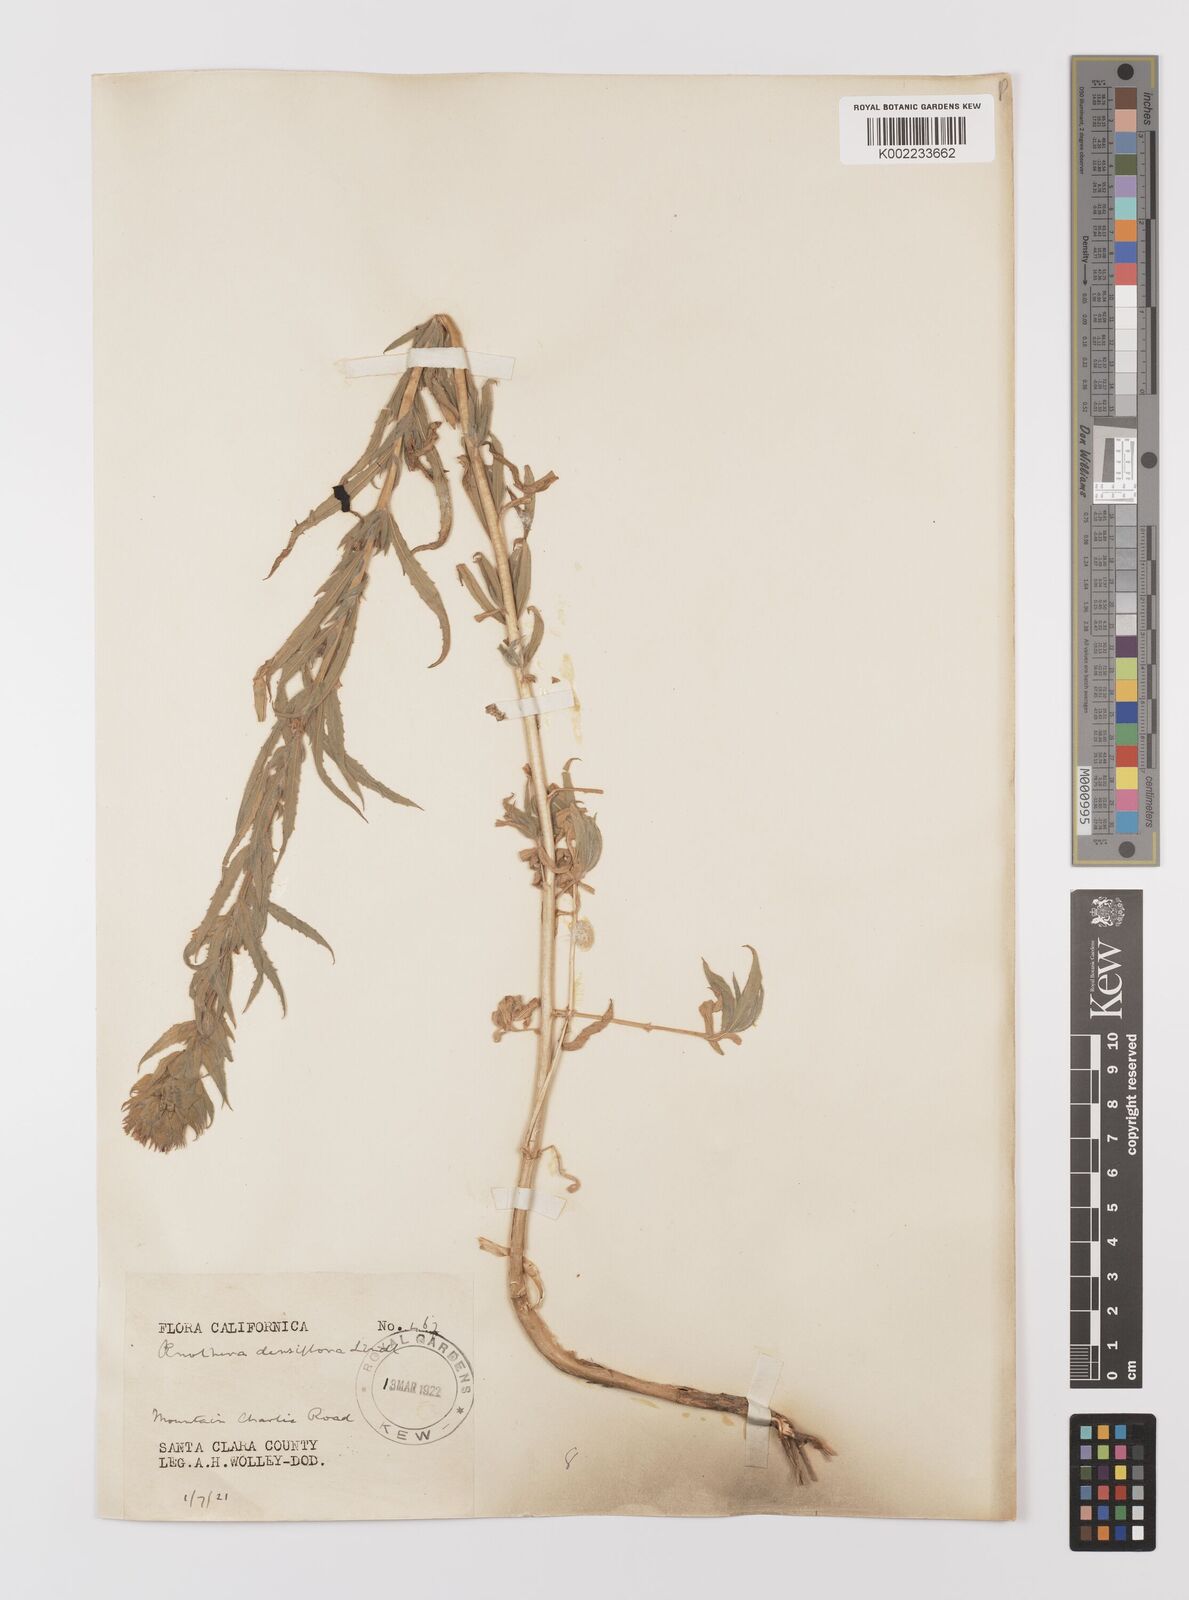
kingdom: Plantae
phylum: Tracheophyta
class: Magnoliopsida
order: Myrtales
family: Onagraceae
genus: Epilobium
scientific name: Epilobium densiflorum
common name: Dense spike-primrose
